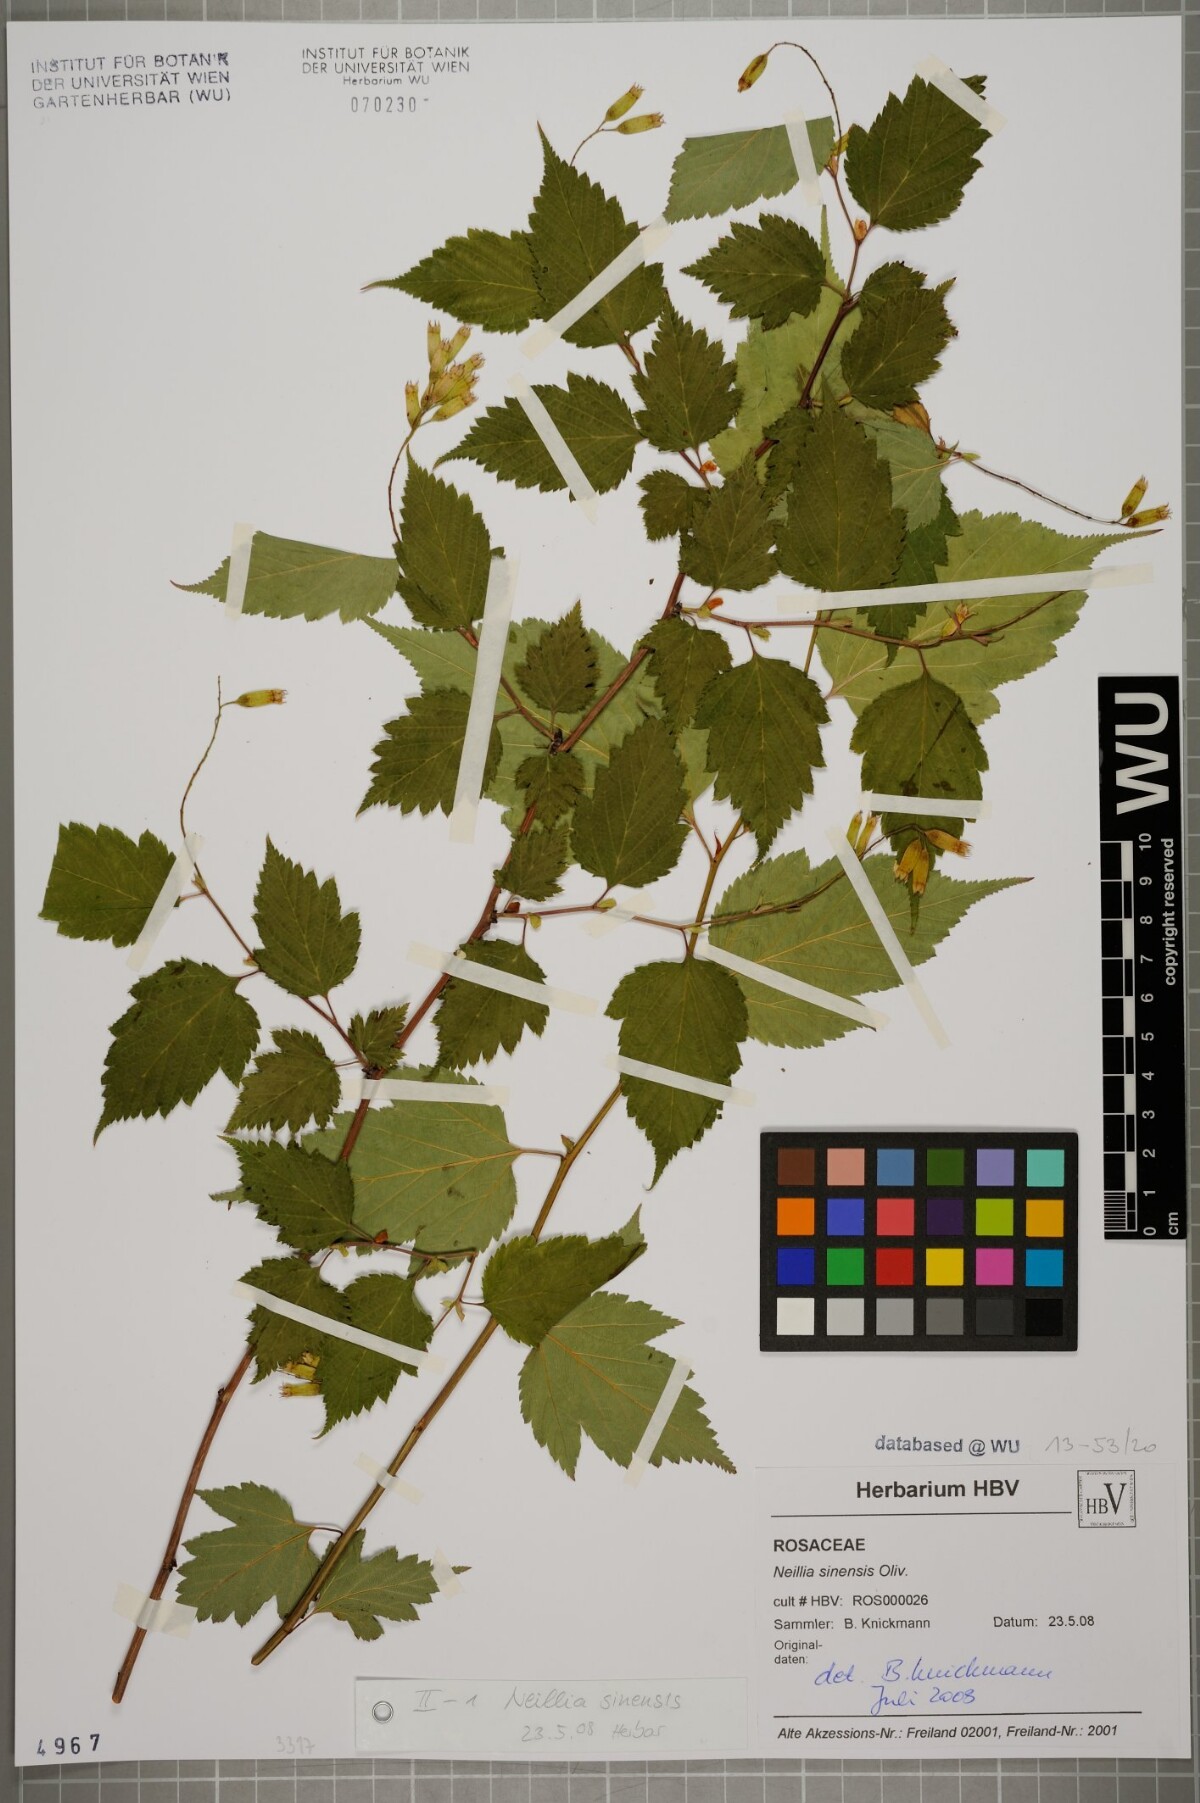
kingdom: Plantae
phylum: Tracheophyta
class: Magnoliopsida
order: Rosales
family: Rosaceae
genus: Neillia
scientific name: Neillia sinensis
